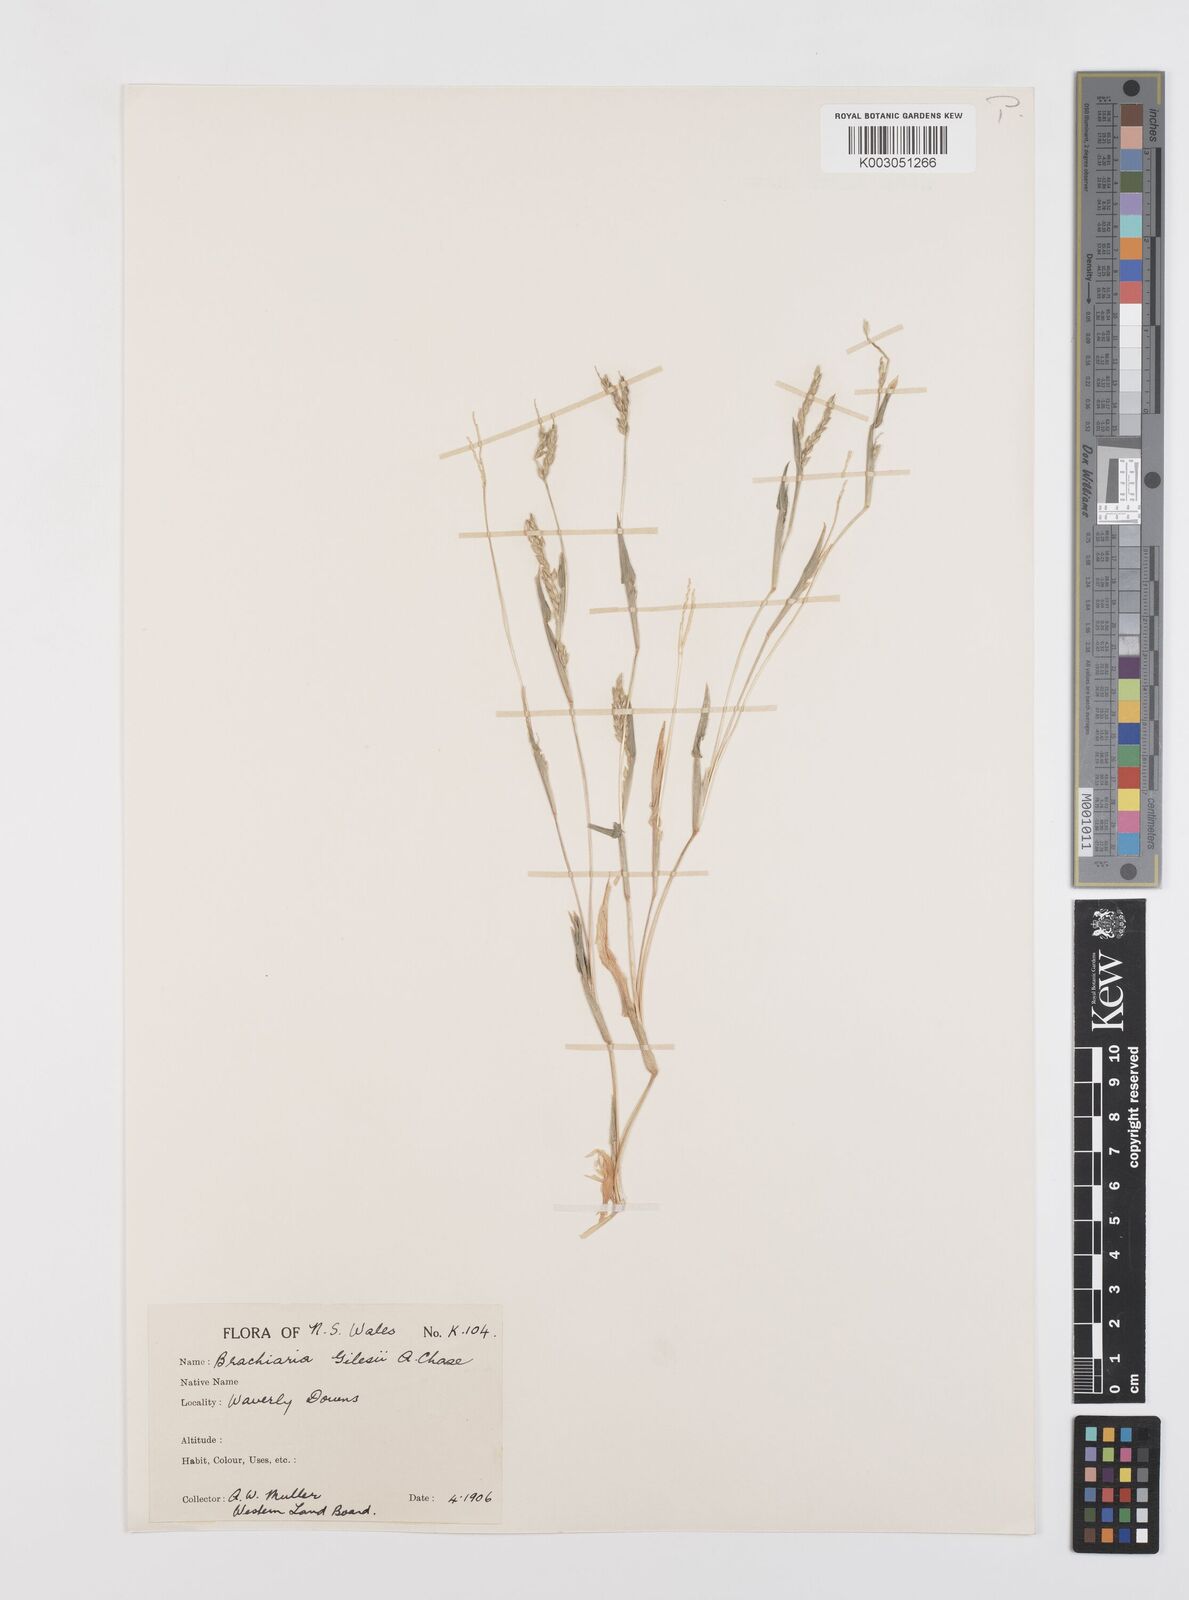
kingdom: Plantae
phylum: Tracheophyta
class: Liliopsida
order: Poales
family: Poaceae
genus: Urochloa
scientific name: Urochloa gilesii
